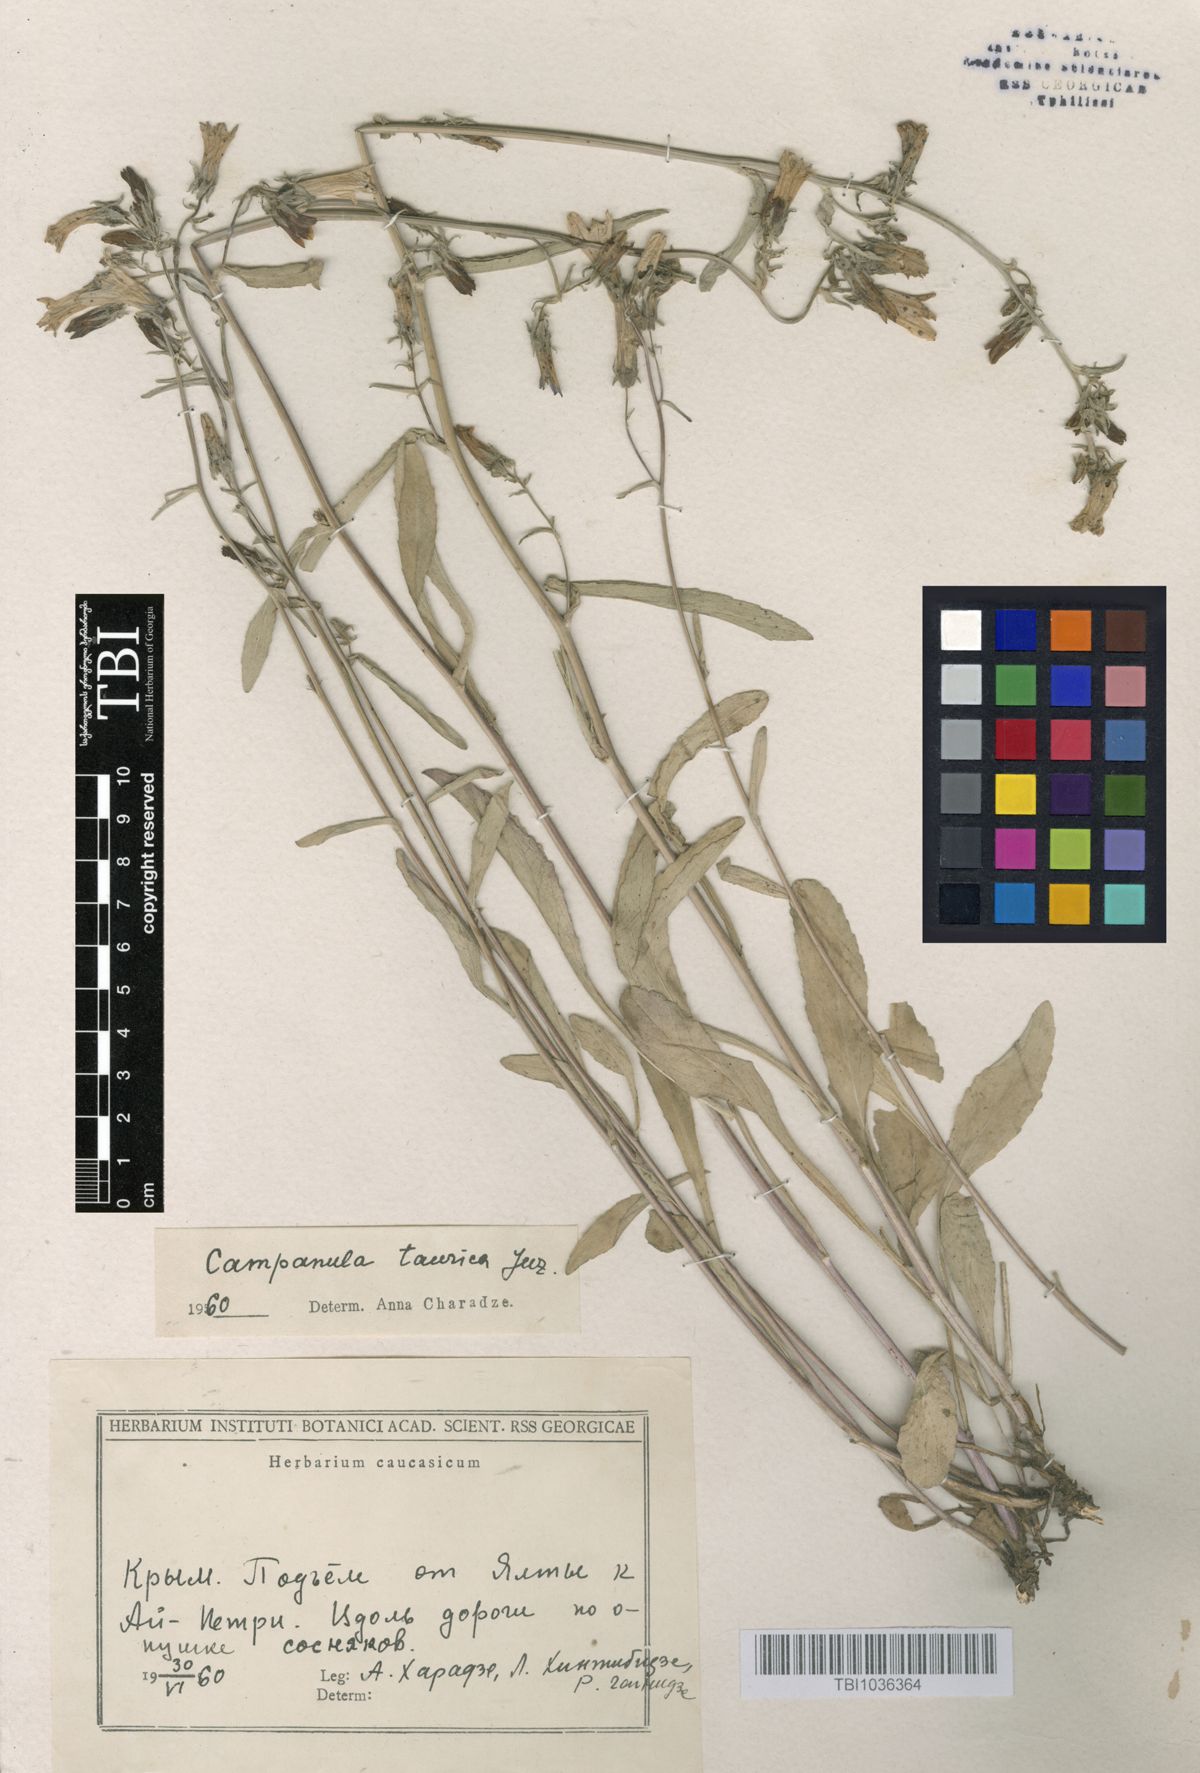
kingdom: Plantae
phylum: Tracheophyta
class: Magnoliopsida
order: Asterales
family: Campanulaceae
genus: Campanula
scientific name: Campanula sibirica
